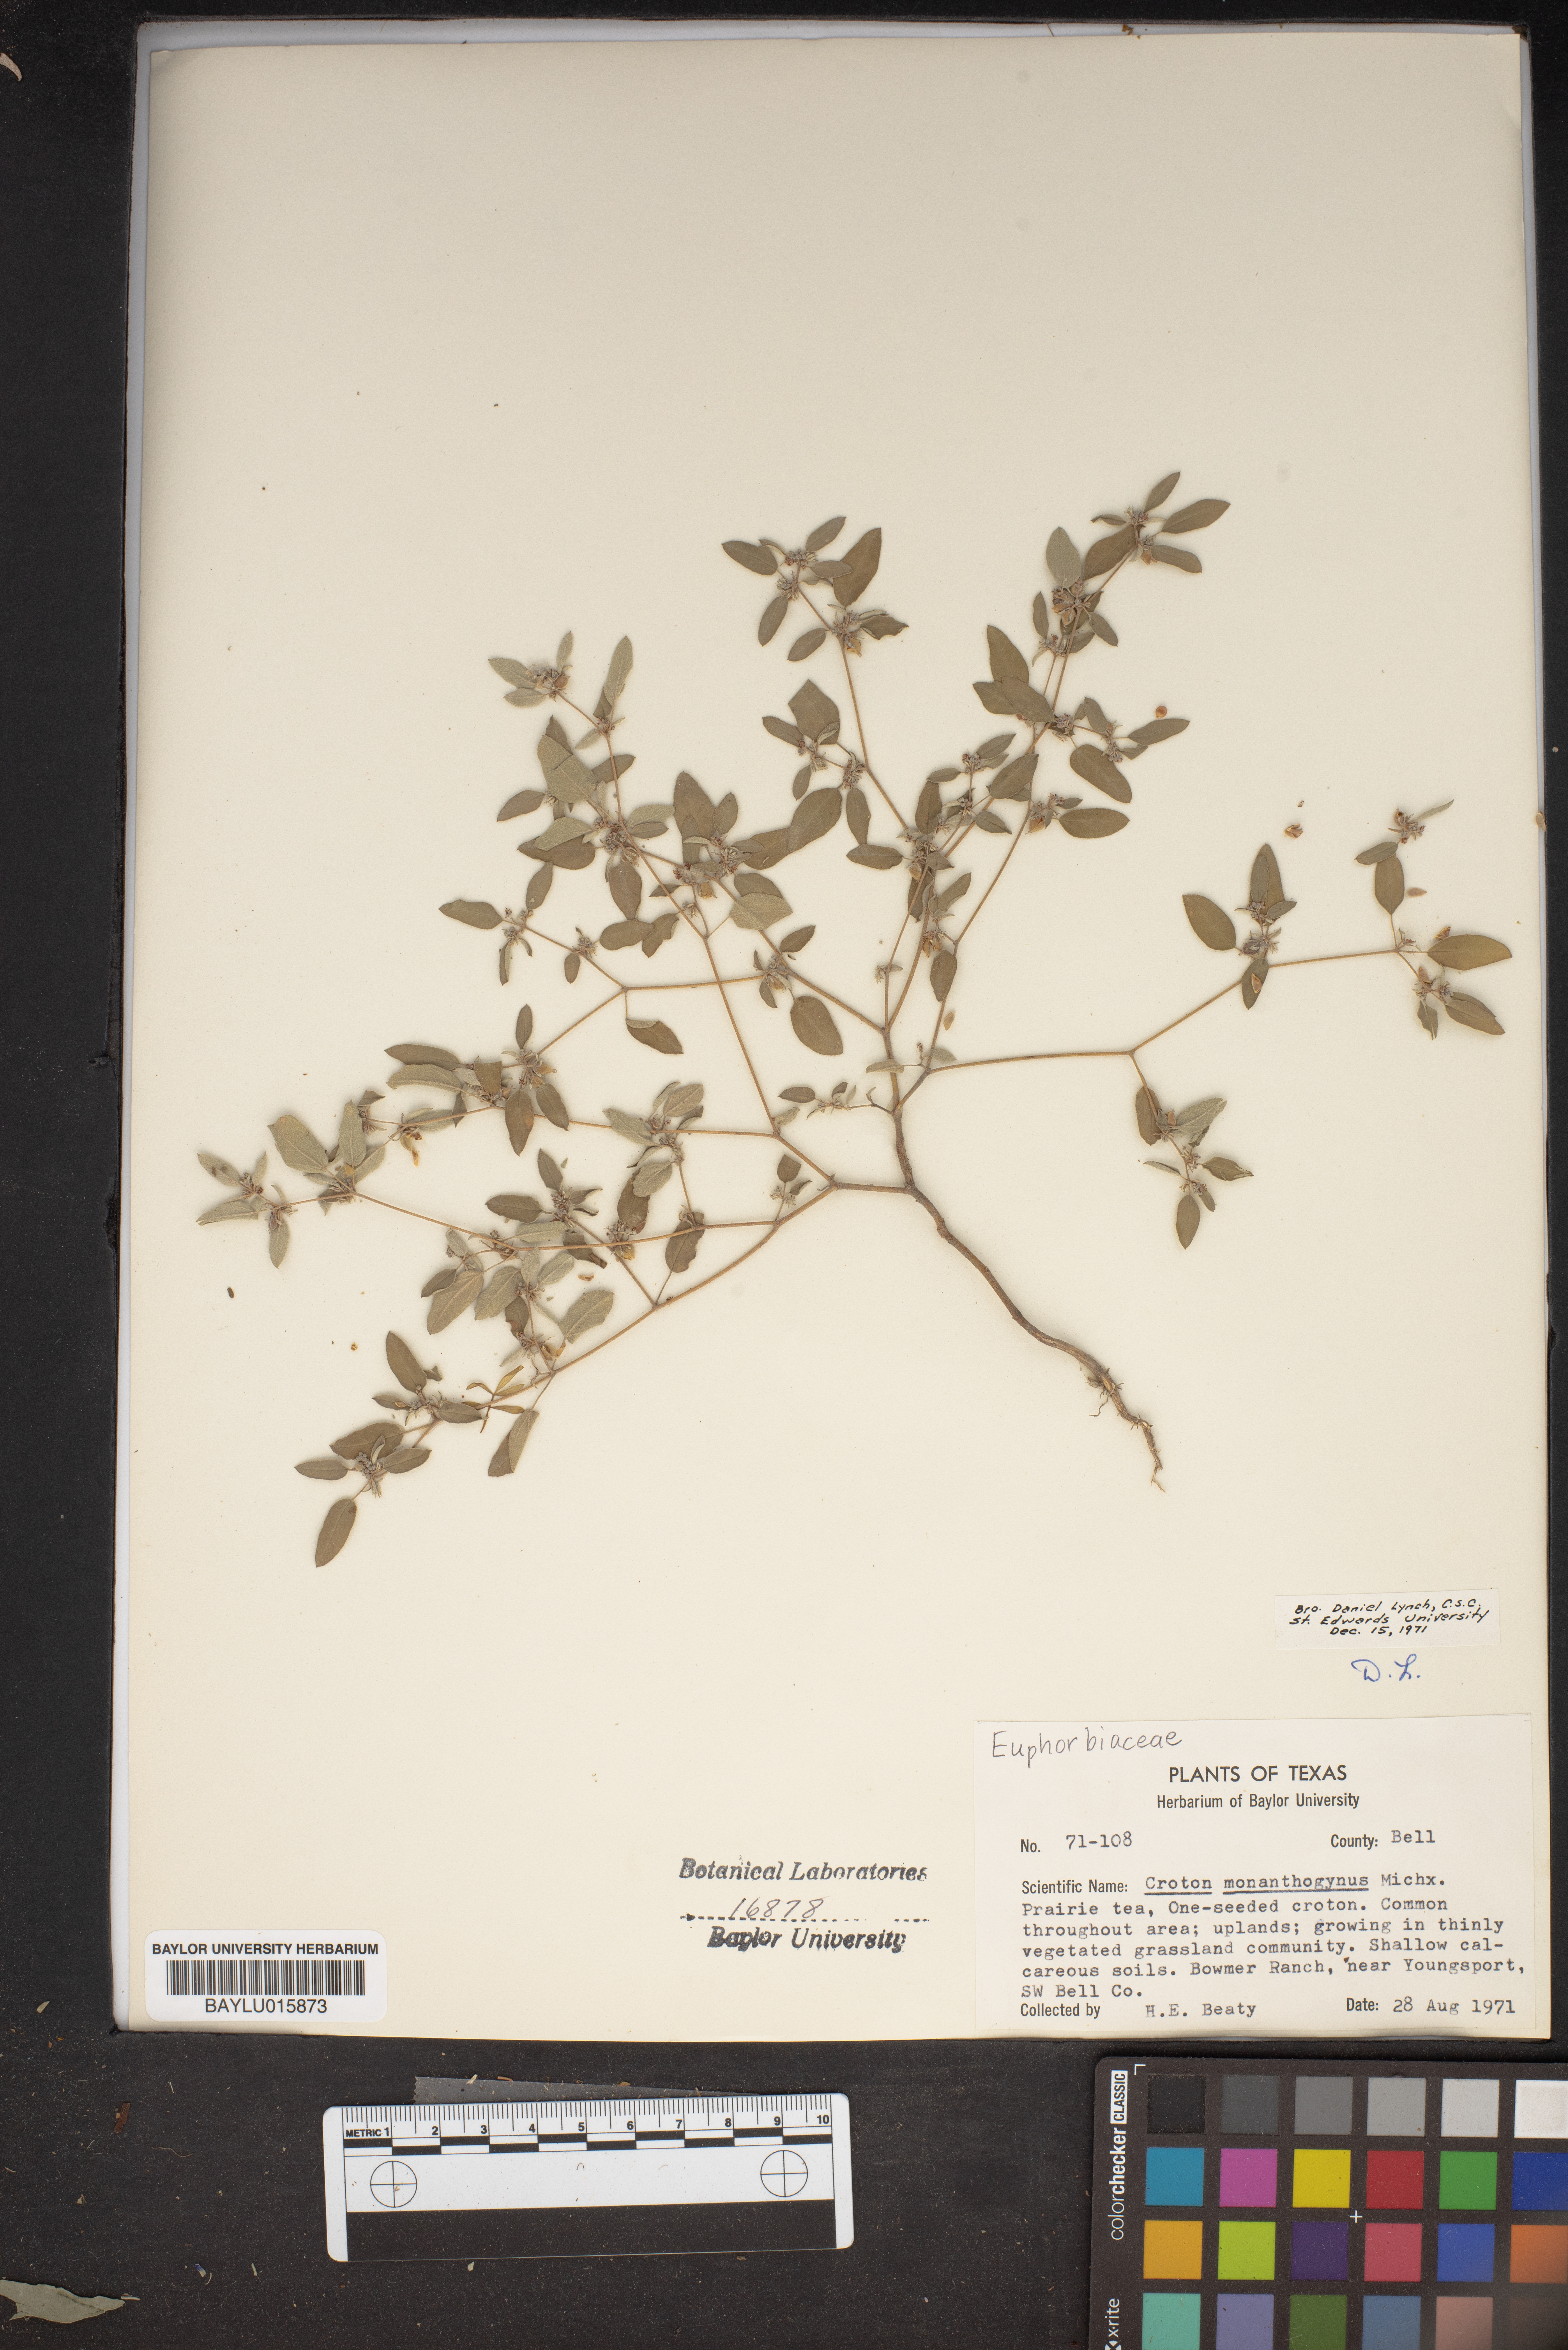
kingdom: Plantae
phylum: Tracheophyta
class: Magnoliopsida
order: Malpighiales
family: Euphorbiaceae
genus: Croton
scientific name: Croton monanthogynus
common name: One-seed croton
